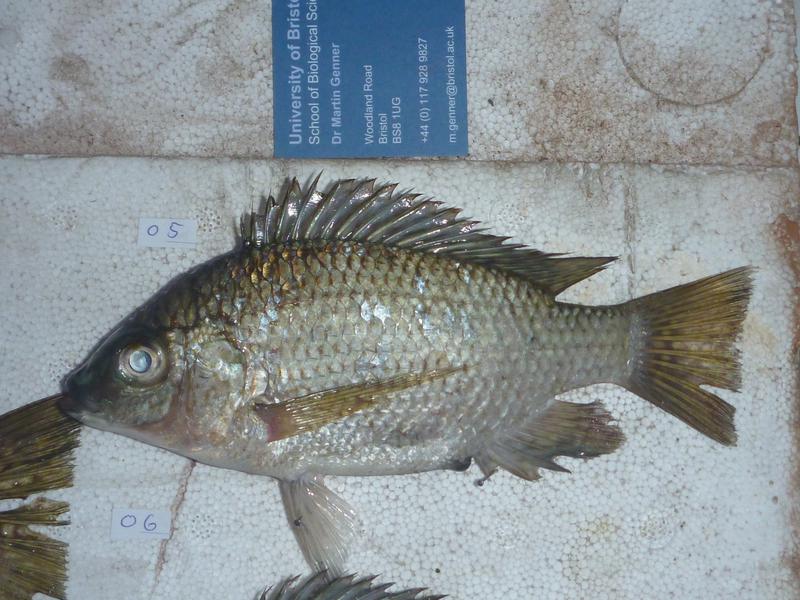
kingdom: Animalia
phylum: Chordata
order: Perciformes
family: Cichlidae
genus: Oreochromis
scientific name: Oreochromis upembae
